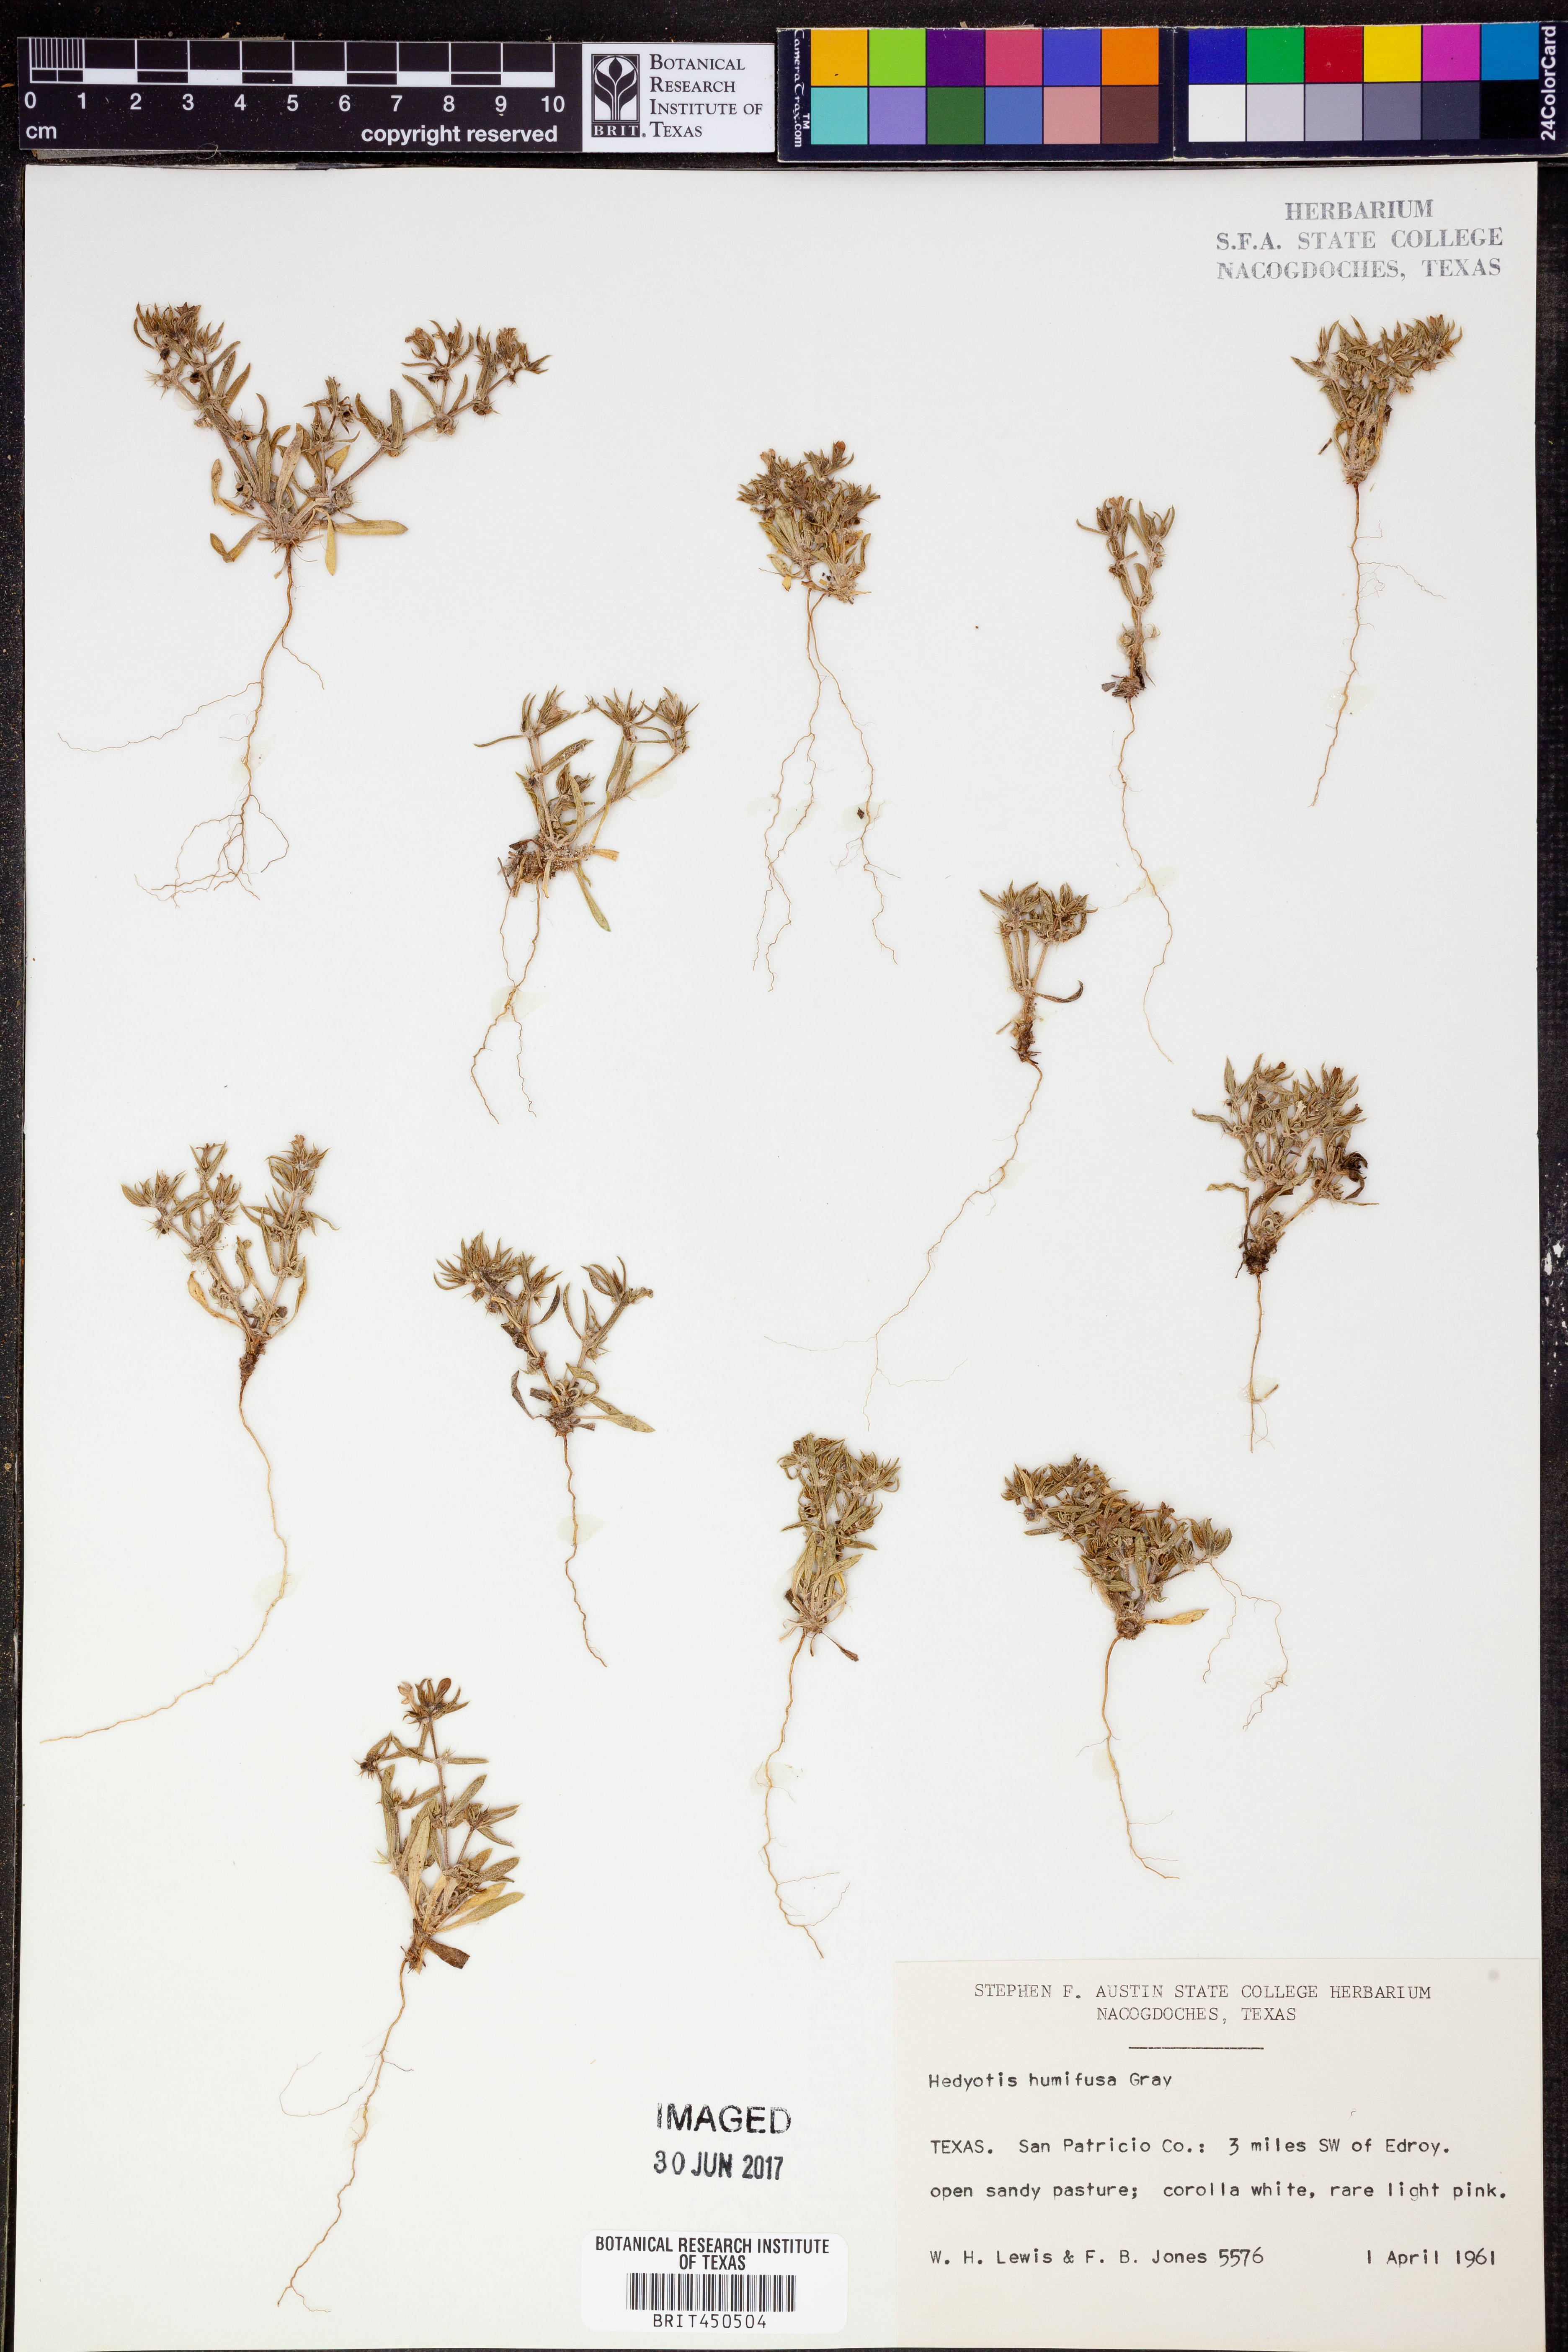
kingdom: Plantae
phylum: Tracheophyta
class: Magnoliopsida
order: Gentianales
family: Rubiaceae
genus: Houstonia
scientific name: Houstonia humifusa
